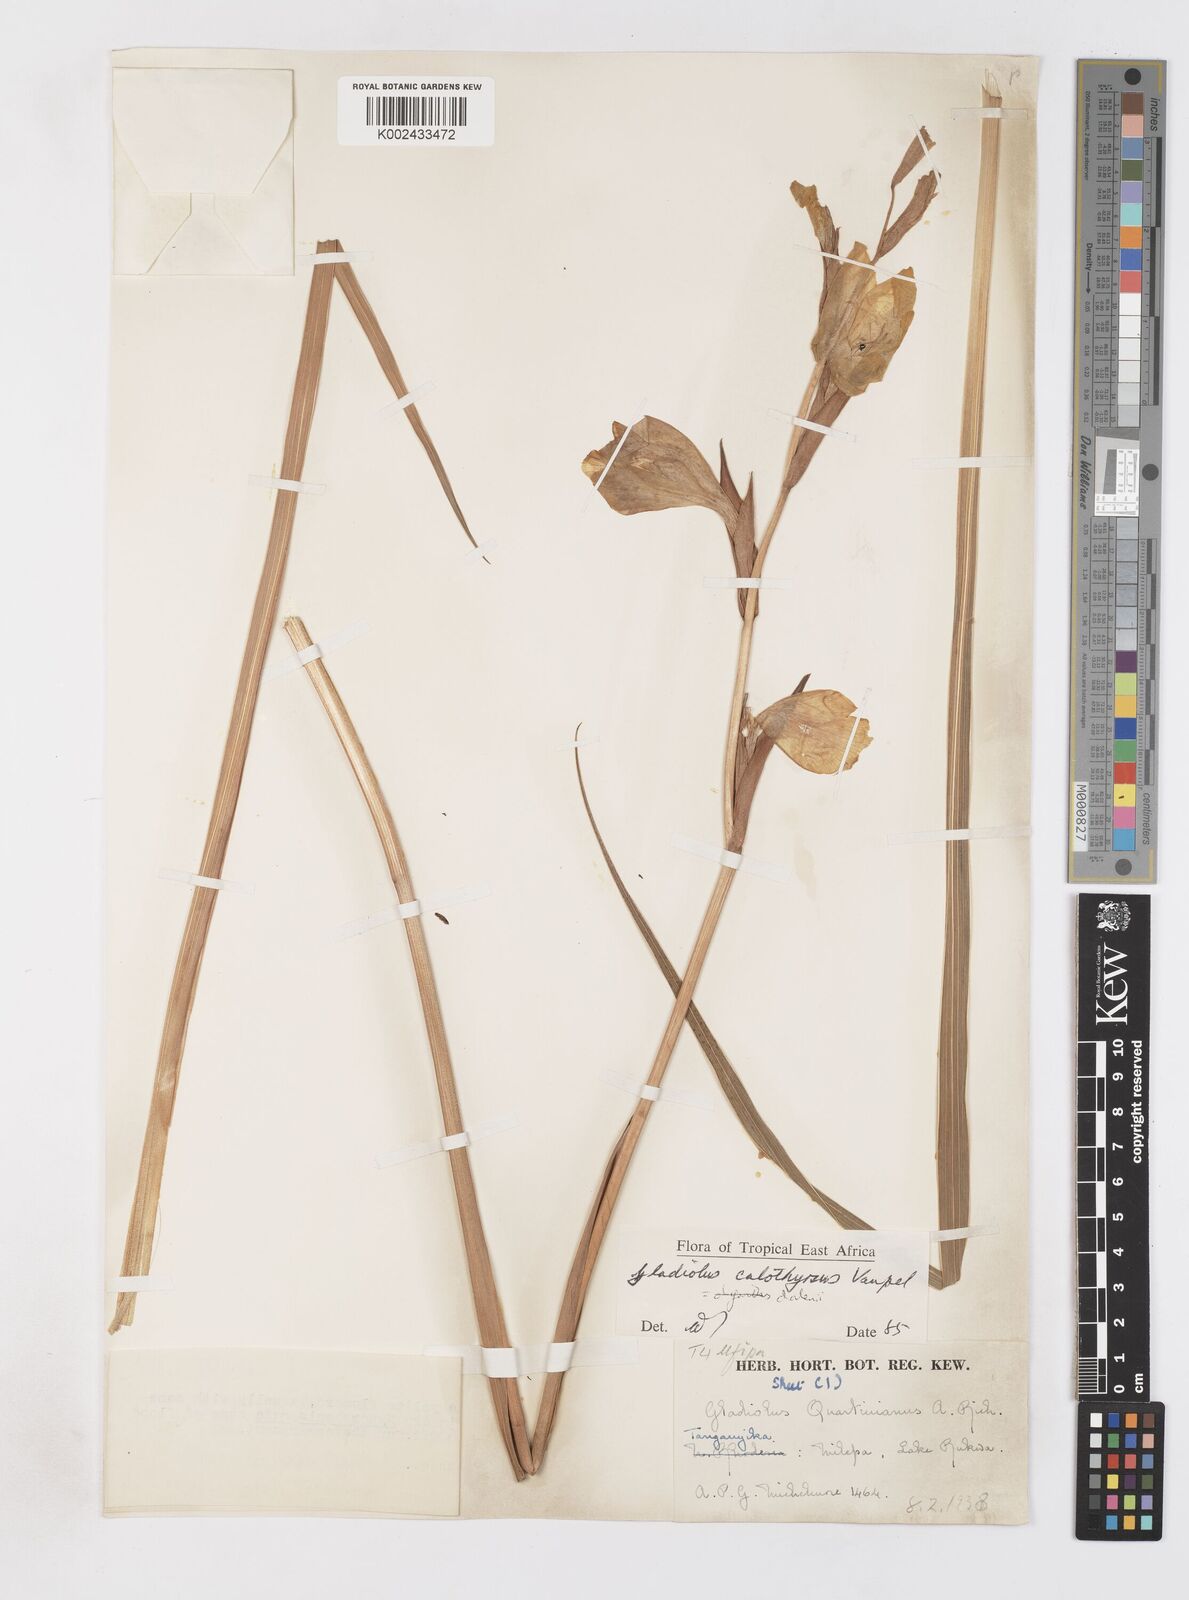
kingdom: Plantae
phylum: Tracheophyta
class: Liliopsida
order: Asparagales
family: Iridaceae
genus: Gladiolus
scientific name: Gladiolus dalenii
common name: Cornflag
